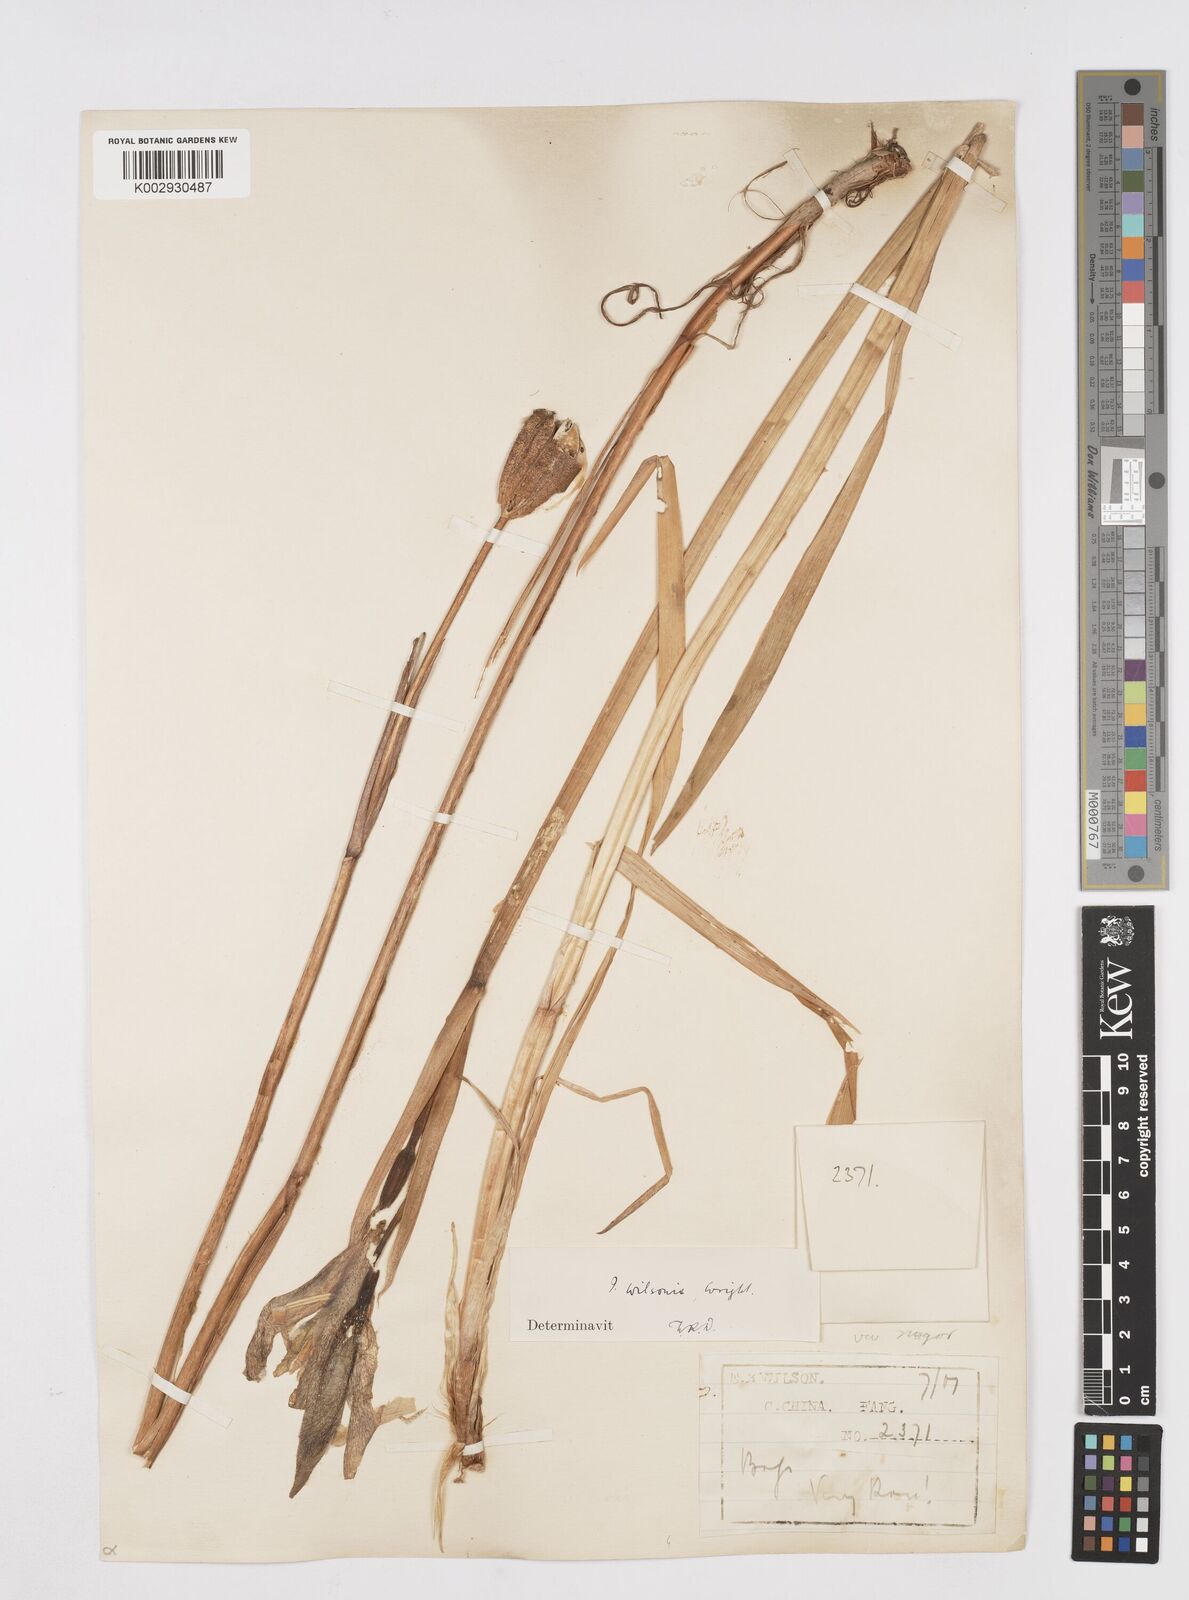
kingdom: Plantae
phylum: Tracheophyta
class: Liliopsida
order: Asparagales
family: Iridaceae
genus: Iris
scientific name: Iris wilsonii
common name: Yellow-flower iris
